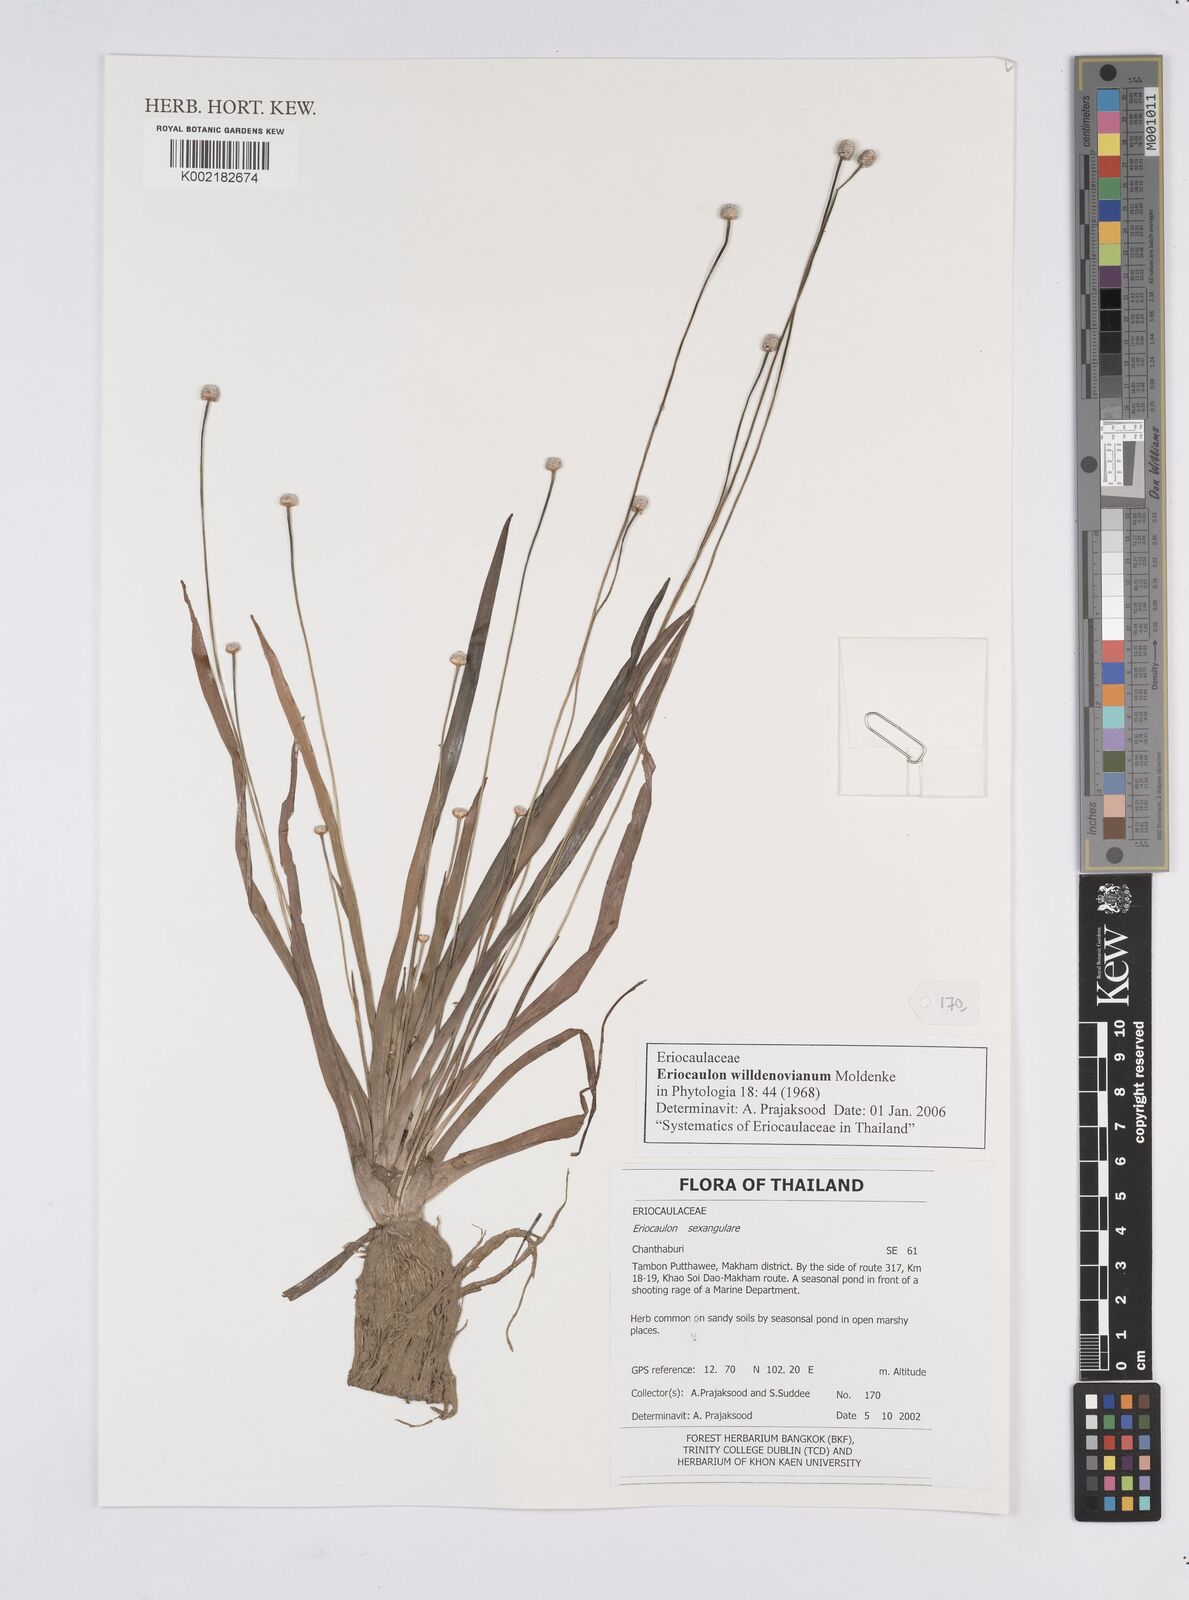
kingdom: Plantae
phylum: Tracheophyta
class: Liliopsida
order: Poales
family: Eriocaulaceae
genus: Eriocaulon
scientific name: Eriocaulon willdenovianum
